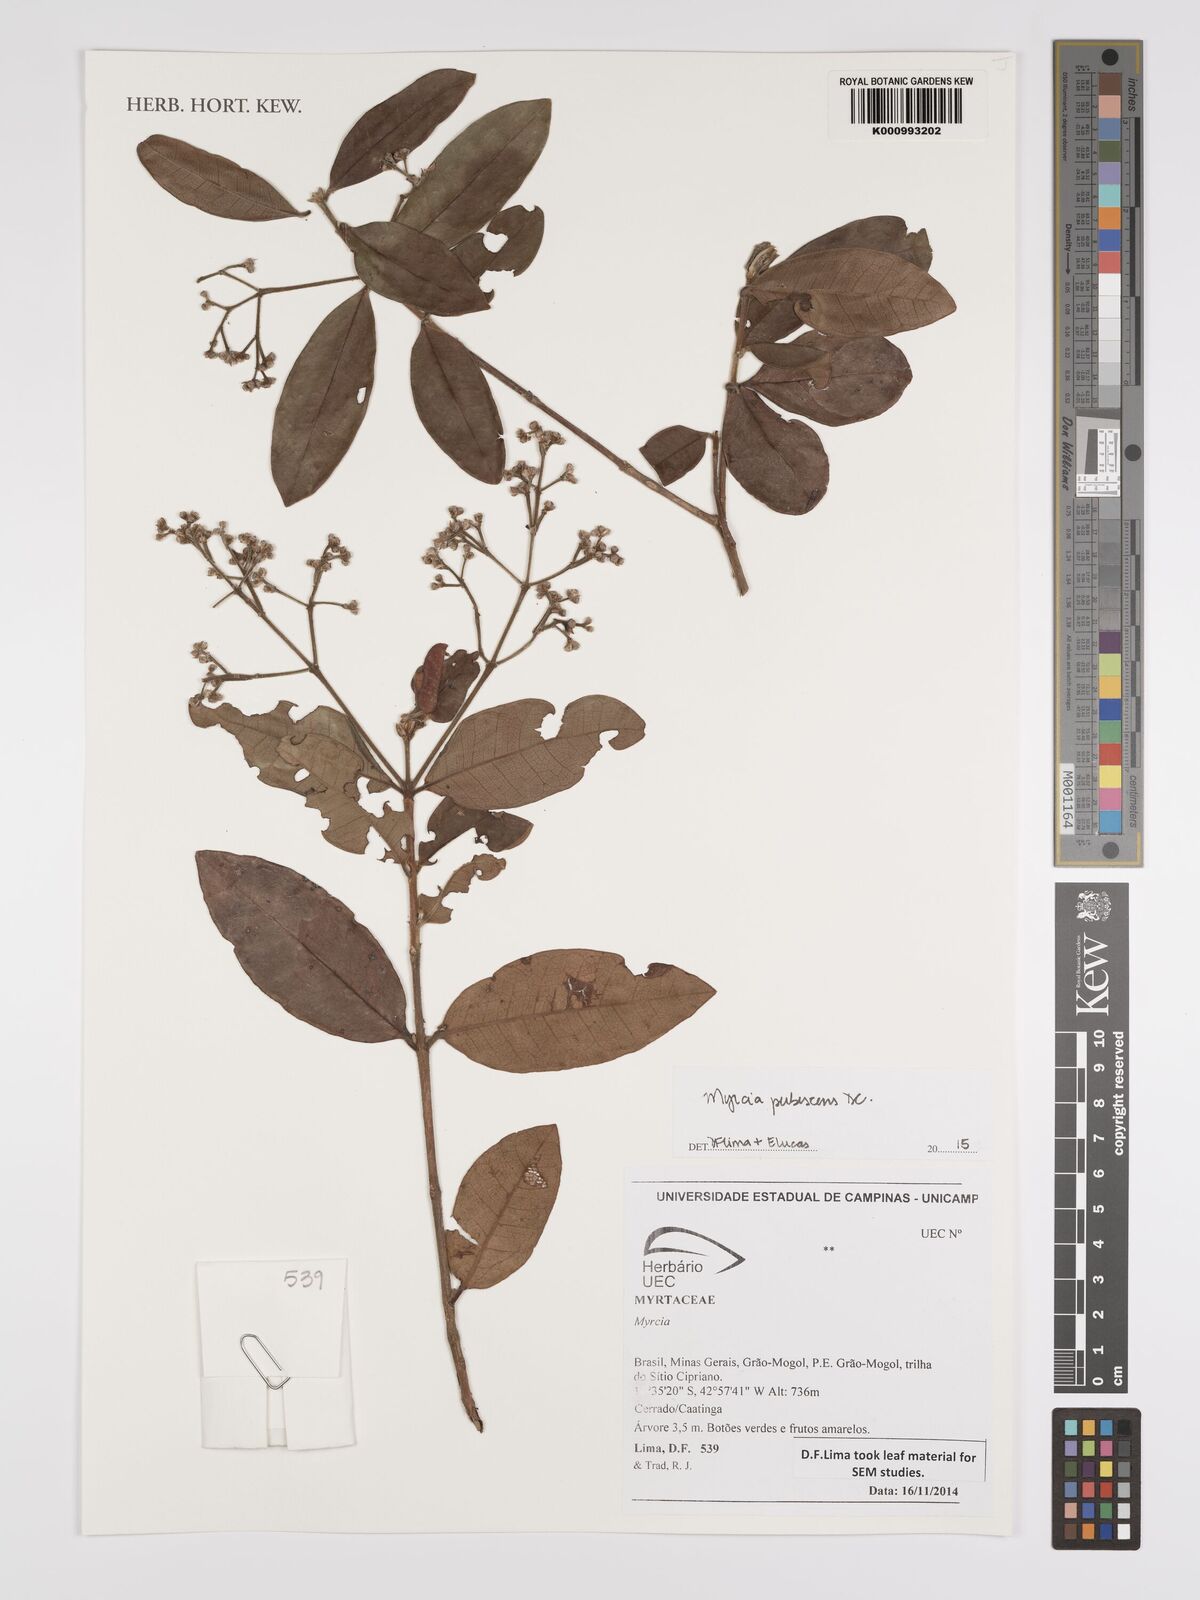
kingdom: Plantae
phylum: Tracheophyta
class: Magnoliopsida
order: Myrtales
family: Myrtaceae
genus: Myrcia
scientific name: Myrcia pubescens
